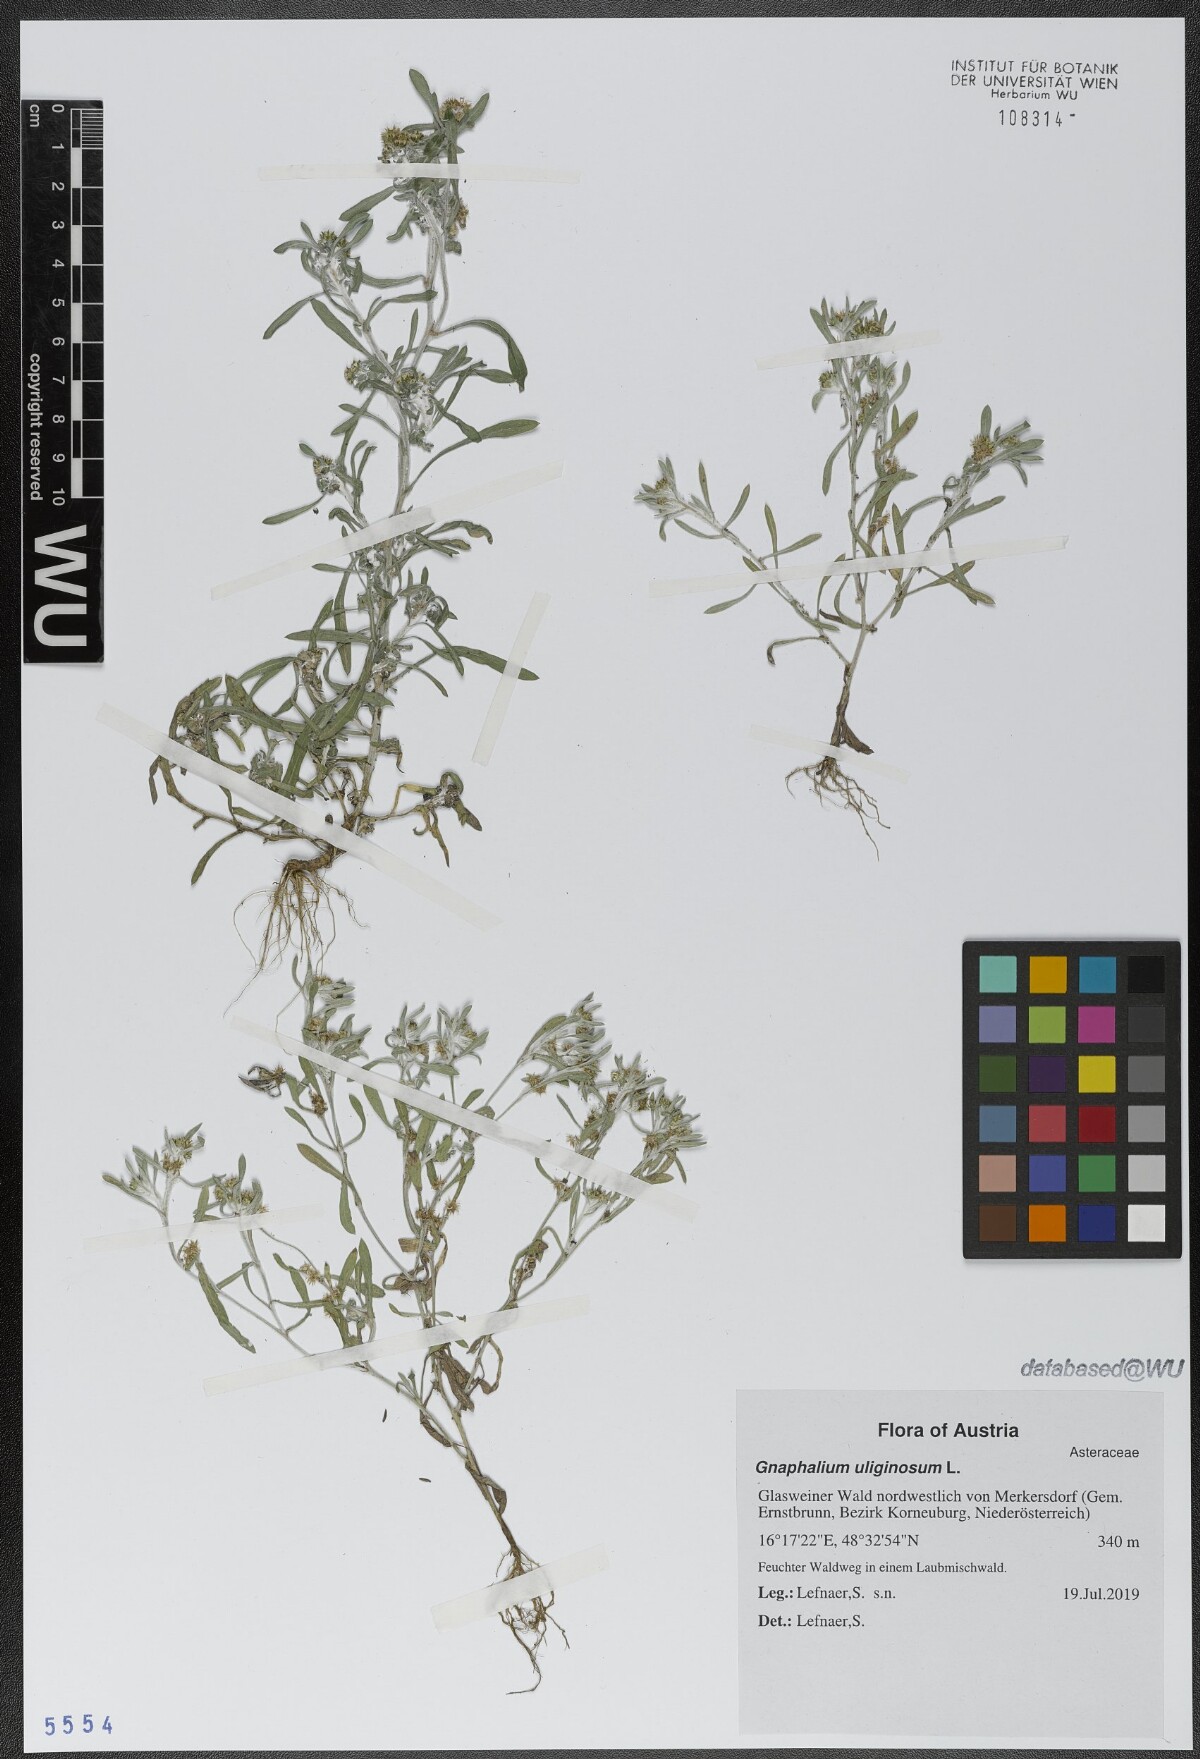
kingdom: Plantae
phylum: Tracheophyta
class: Magnoliopsida
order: Asterales
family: Asteraceae
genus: Gnaphalium
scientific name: Gnaphalium uliginosum
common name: Marsh cudweed
